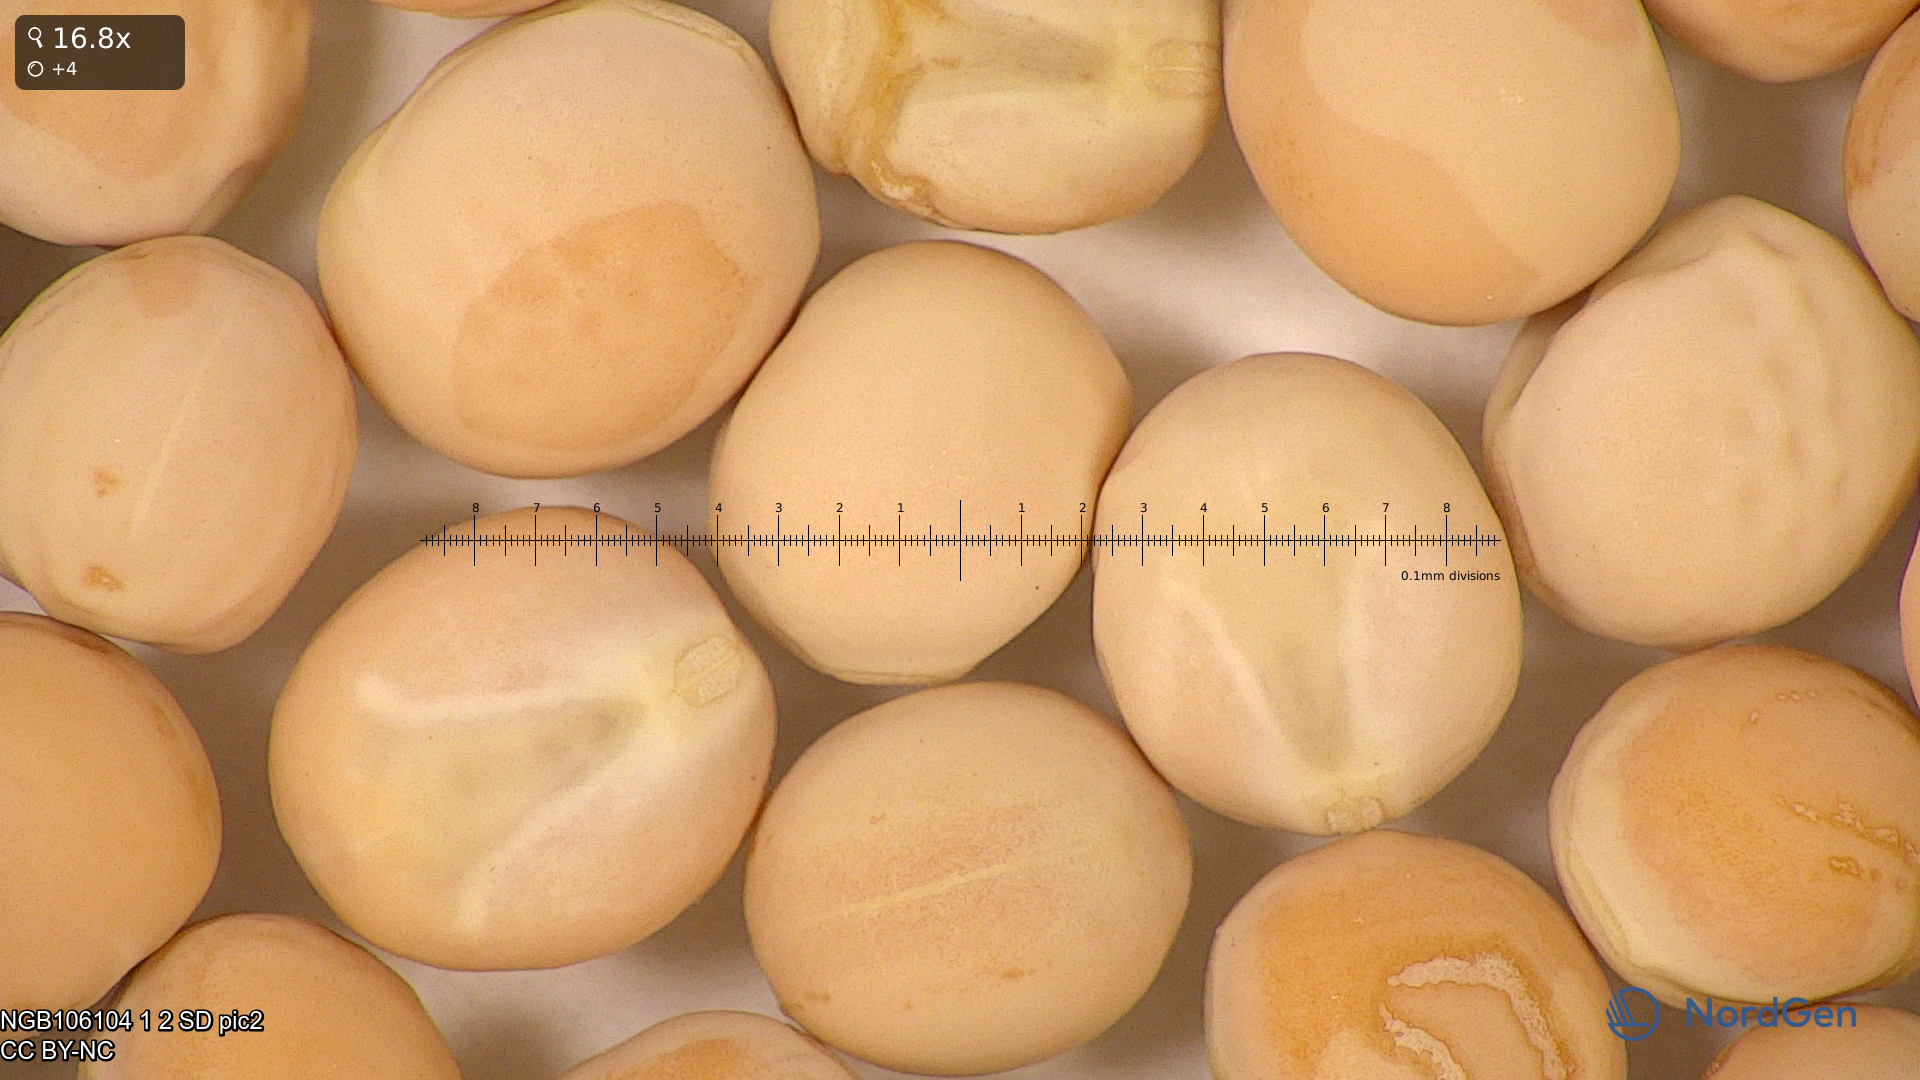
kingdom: Plantae
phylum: Tracheophyta
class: Magnoliopsida
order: Fabales
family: Fabaceae
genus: Lathyrus
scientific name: Lathyrus oleraceus
